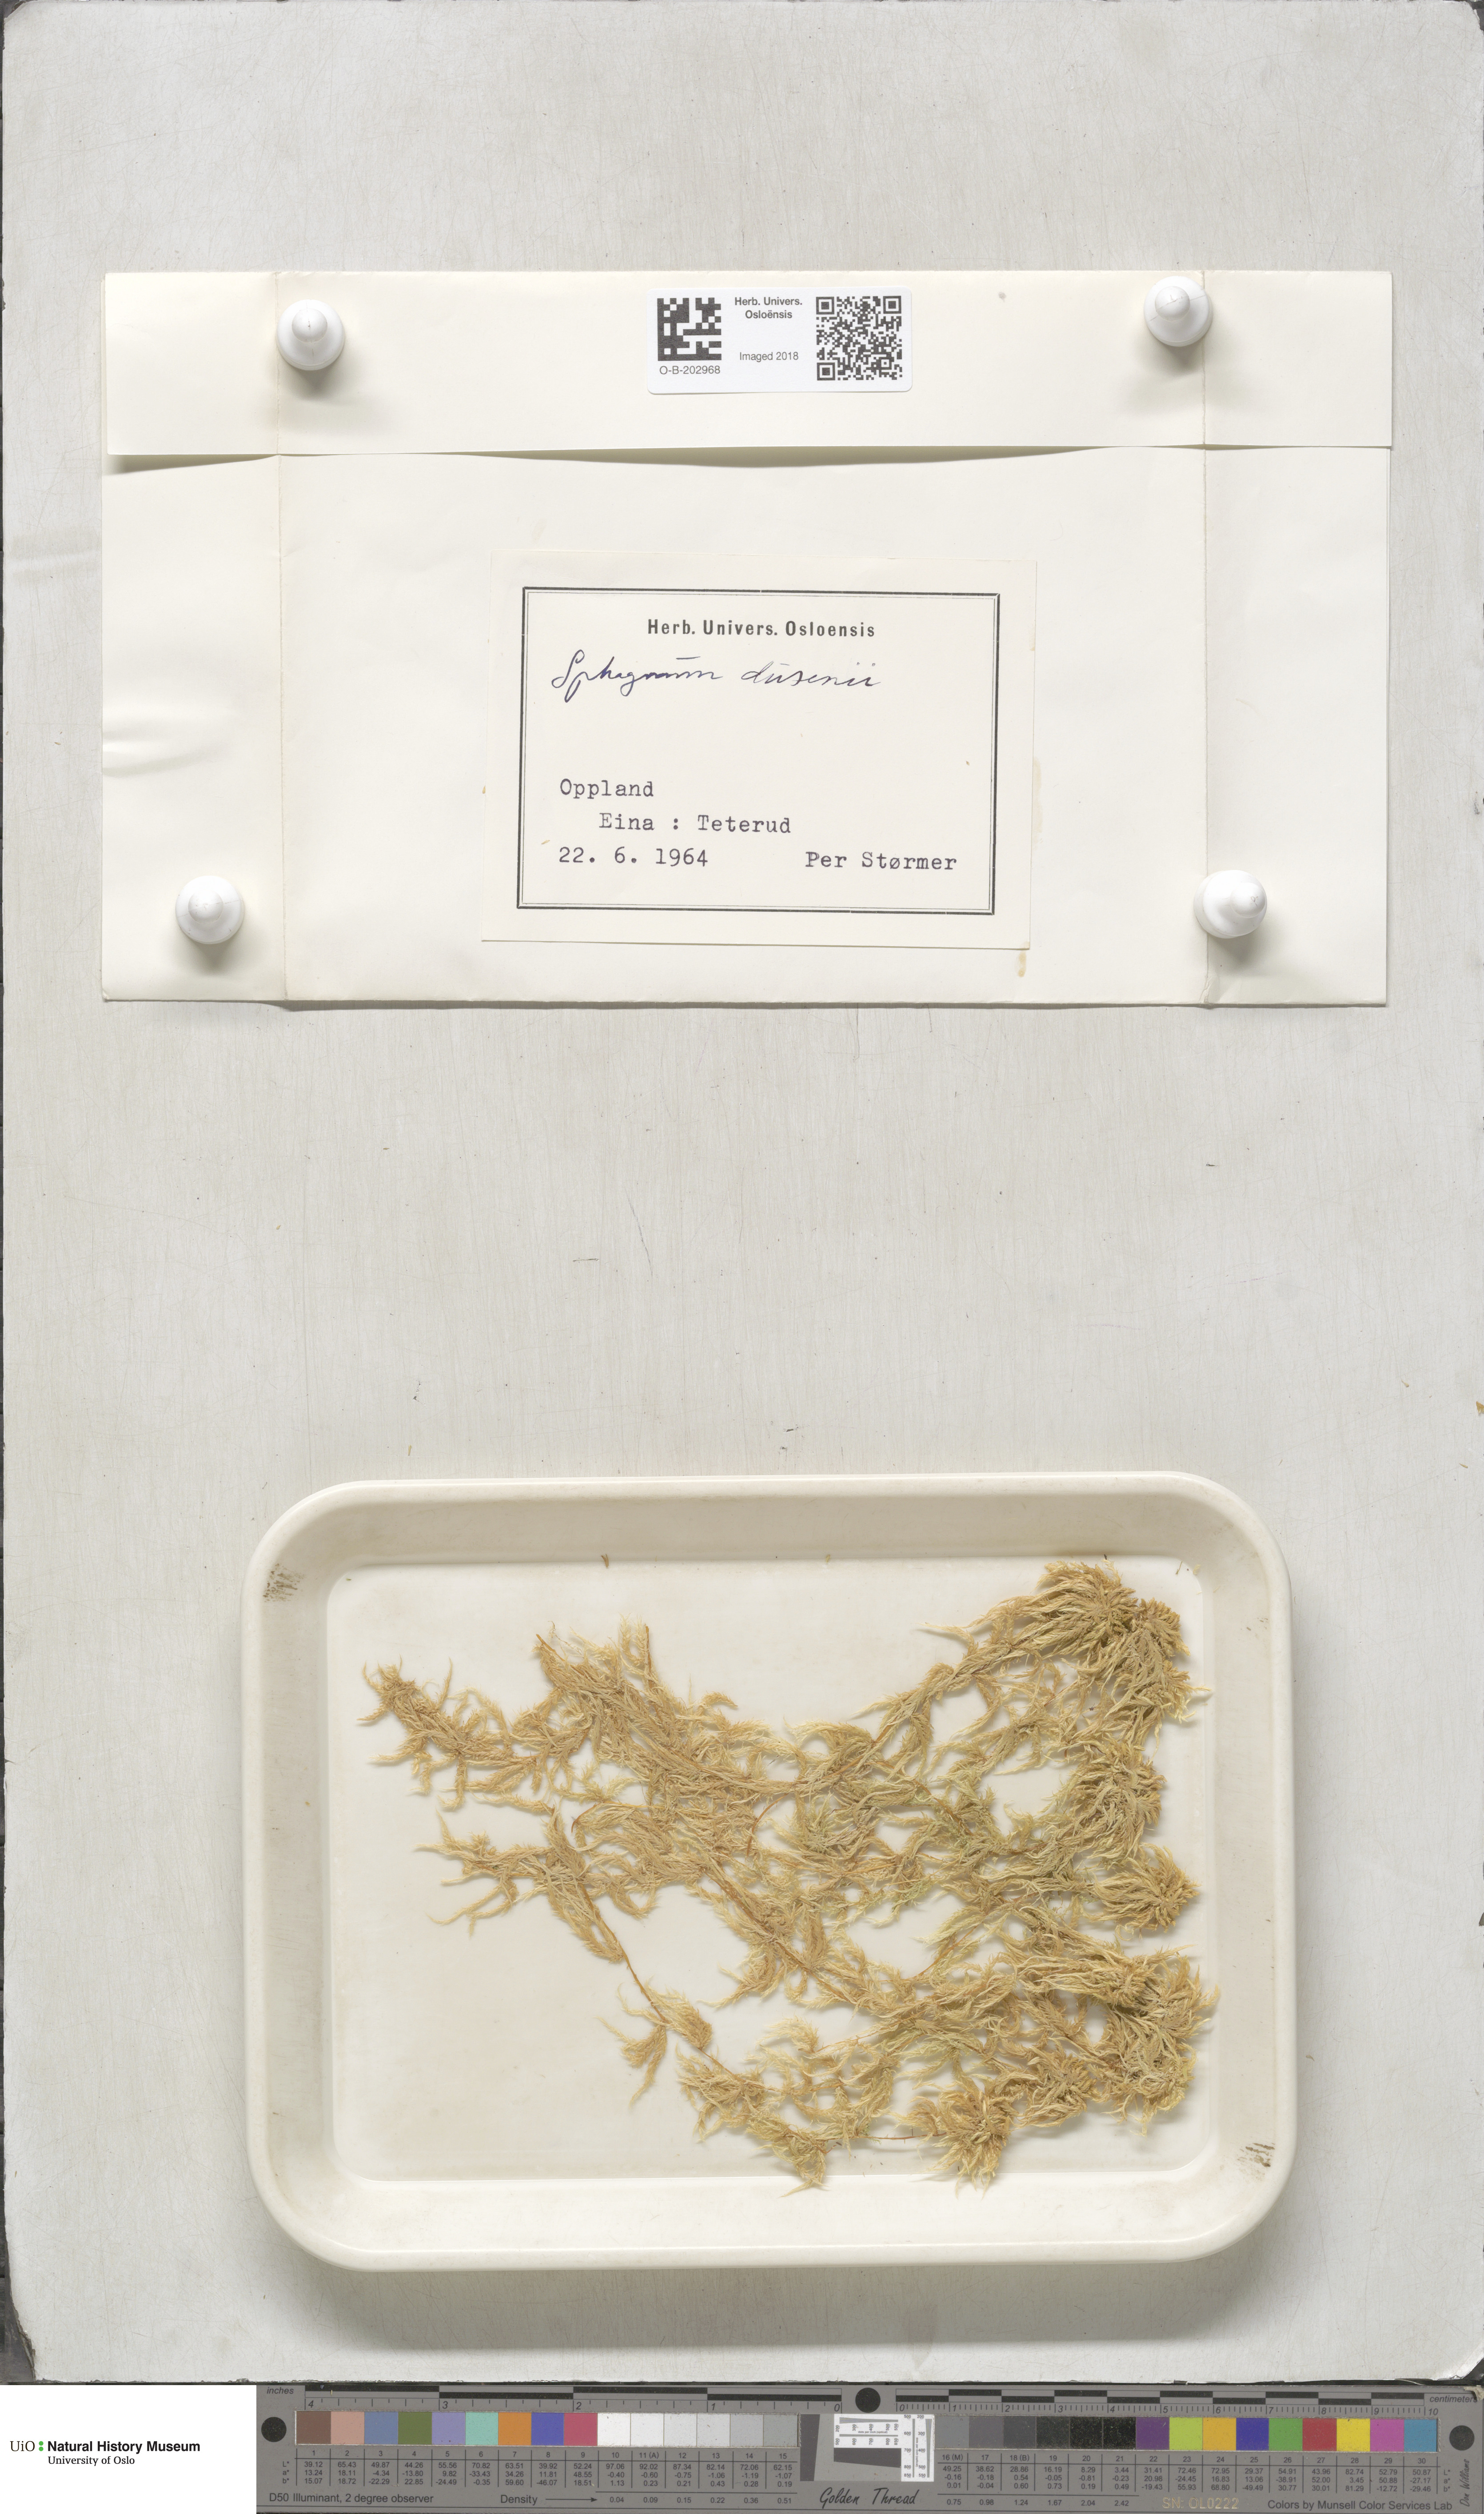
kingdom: Plantae
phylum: Bryophyta
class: Sphagnopsida
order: Sphagnales
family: Sphagnaceae
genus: Sphagnum
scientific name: Sphagnum majus
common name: Olive bog-moss
